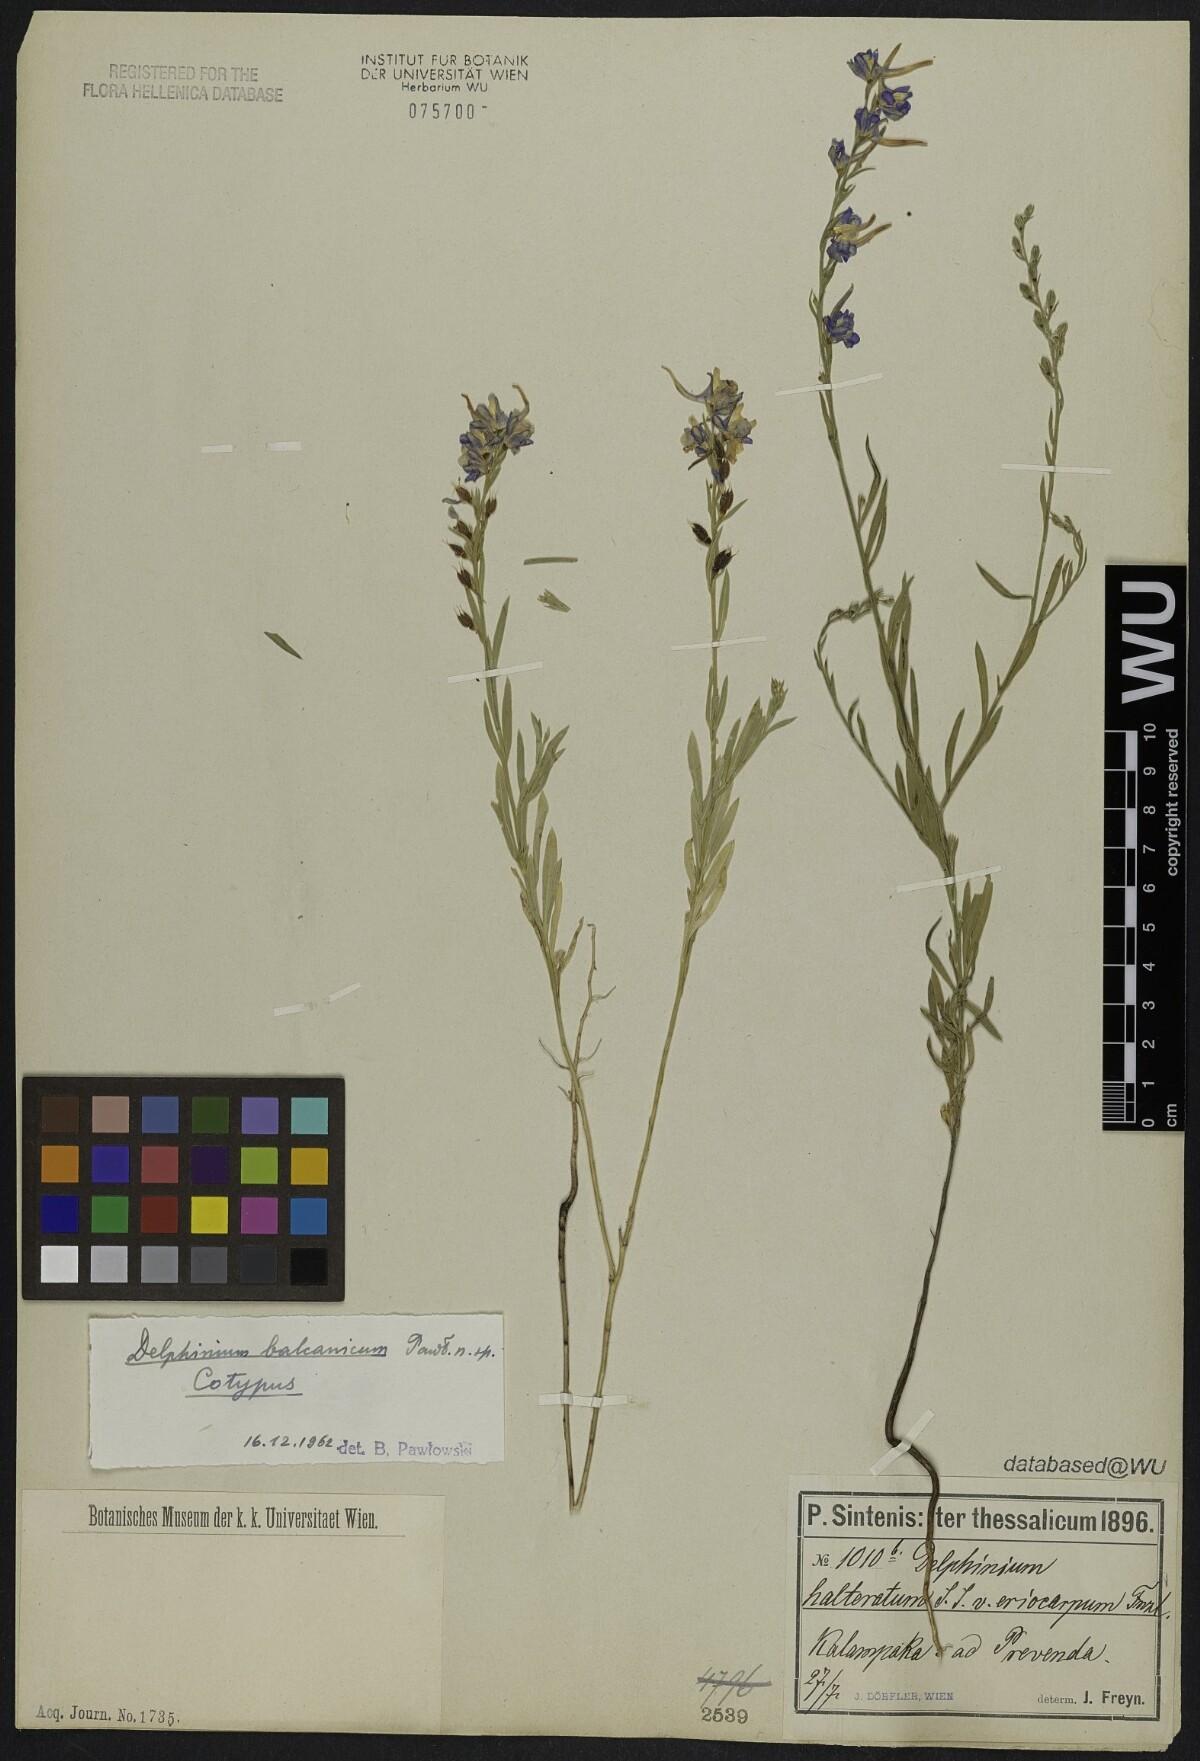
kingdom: Plantae
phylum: Tracheophyta
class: Magnoliopsida
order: Ranunculales
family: Ranunculaceae
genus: Delphinium
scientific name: Delphinium balcanicum
